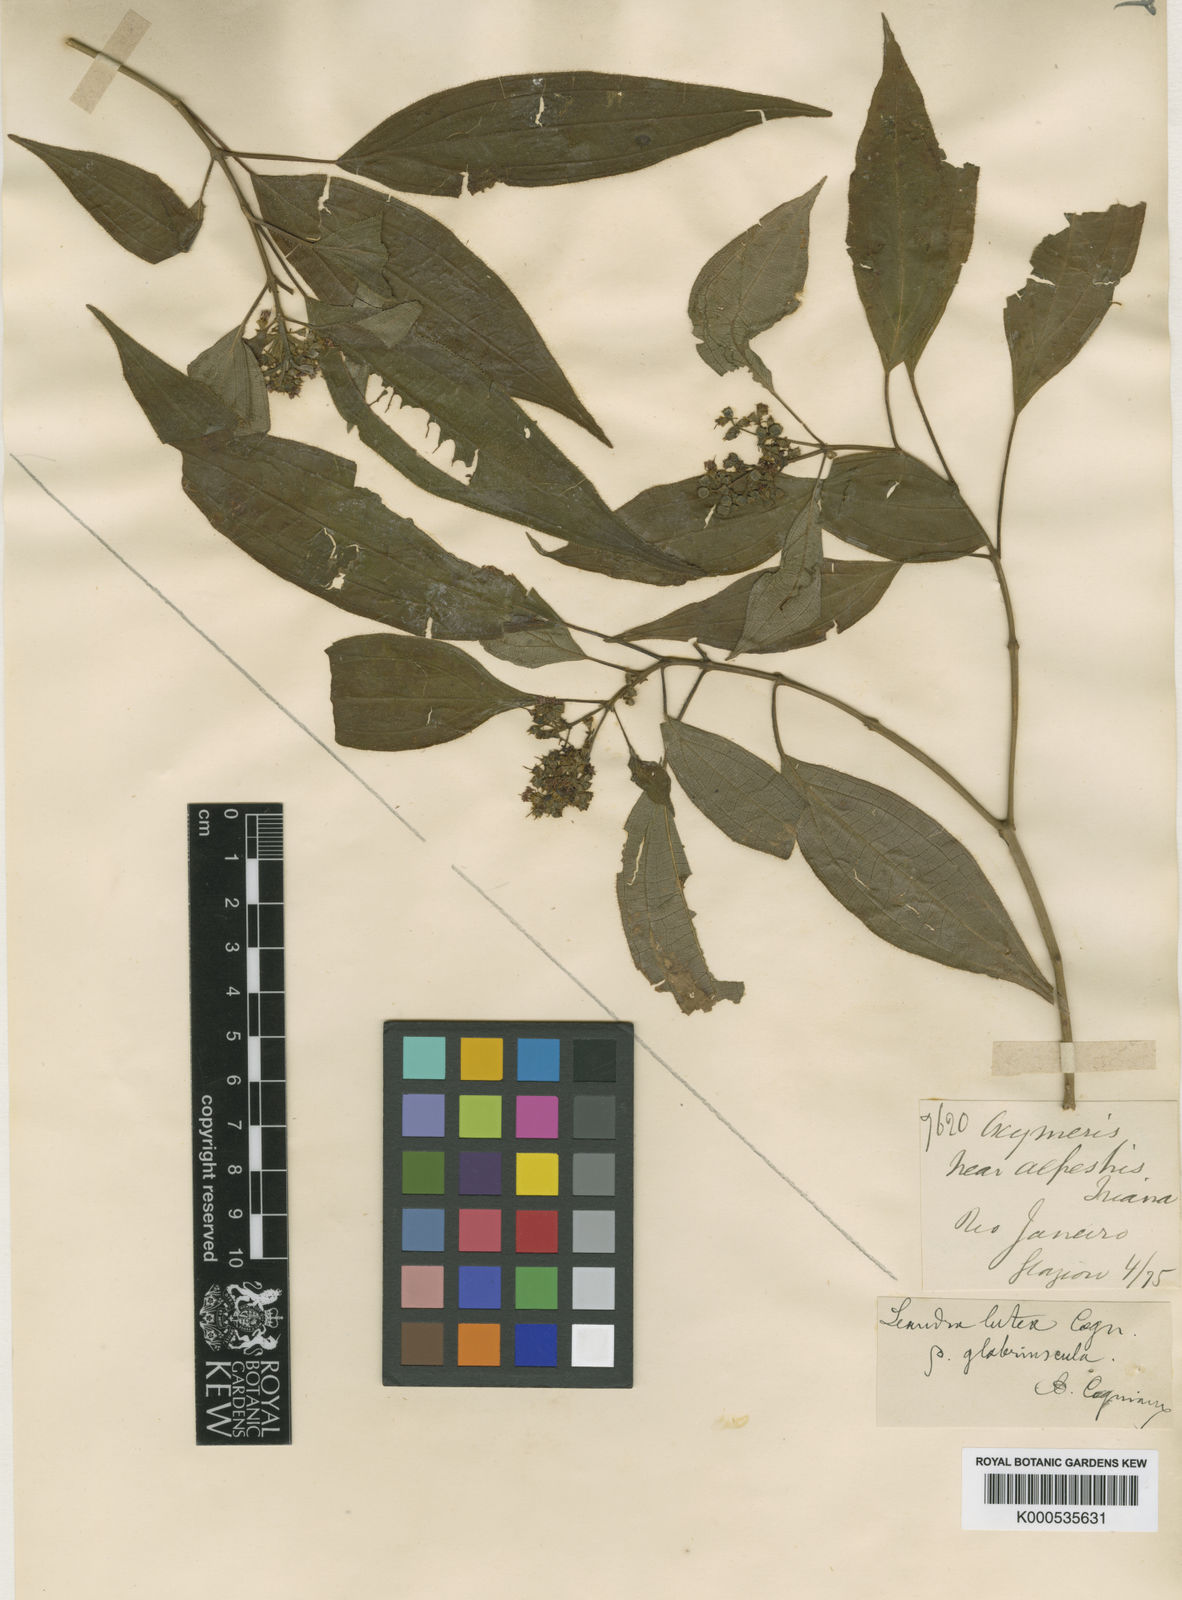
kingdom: Plantae
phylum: Tracheophyta
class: Magnoliopsida
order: Myrtales
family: Melastomataceae
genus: Miconia
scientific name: Miconia lutea
